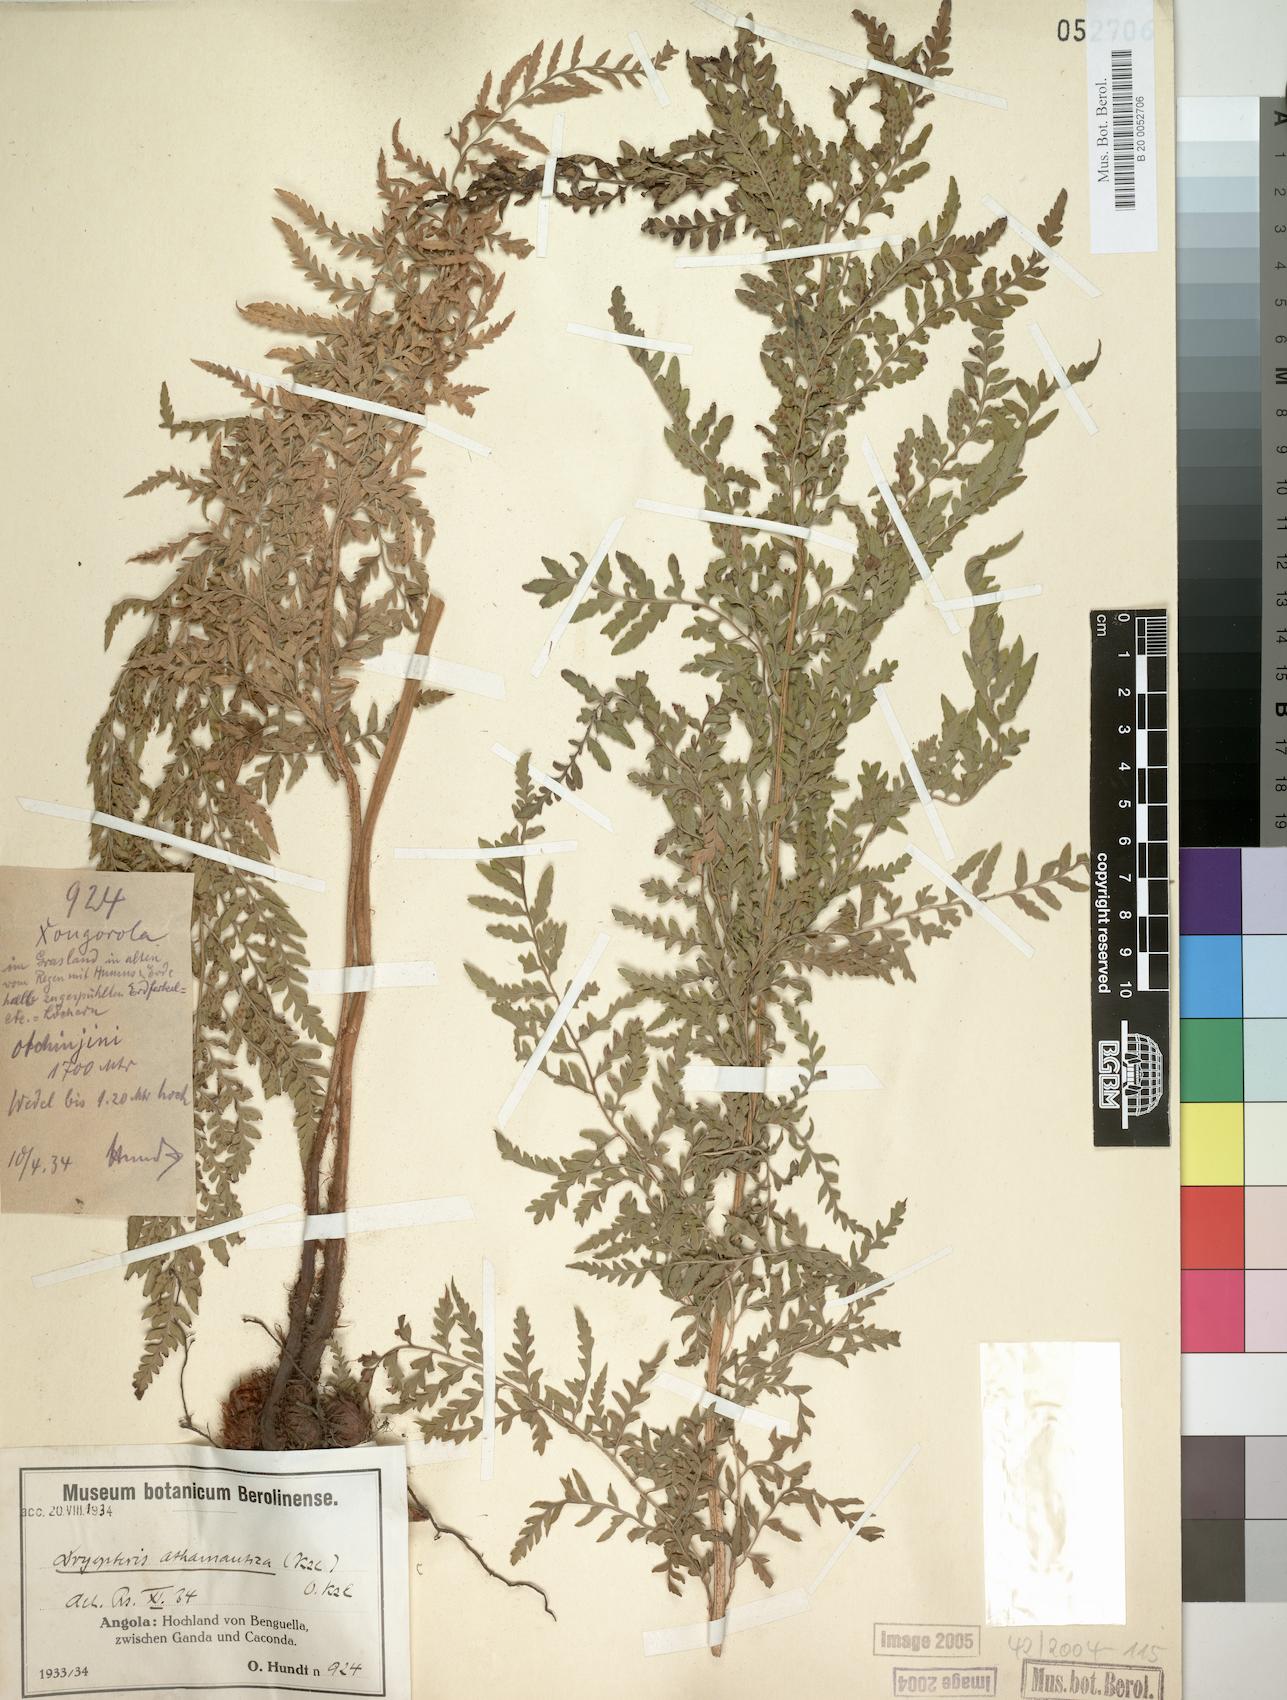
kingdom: Plantae
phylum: Tracheophyta
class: Polypodiopsida
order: Polypodiales
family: Dryopteridaceae
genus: Dryopteris
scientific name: Dryopteris athamantica
